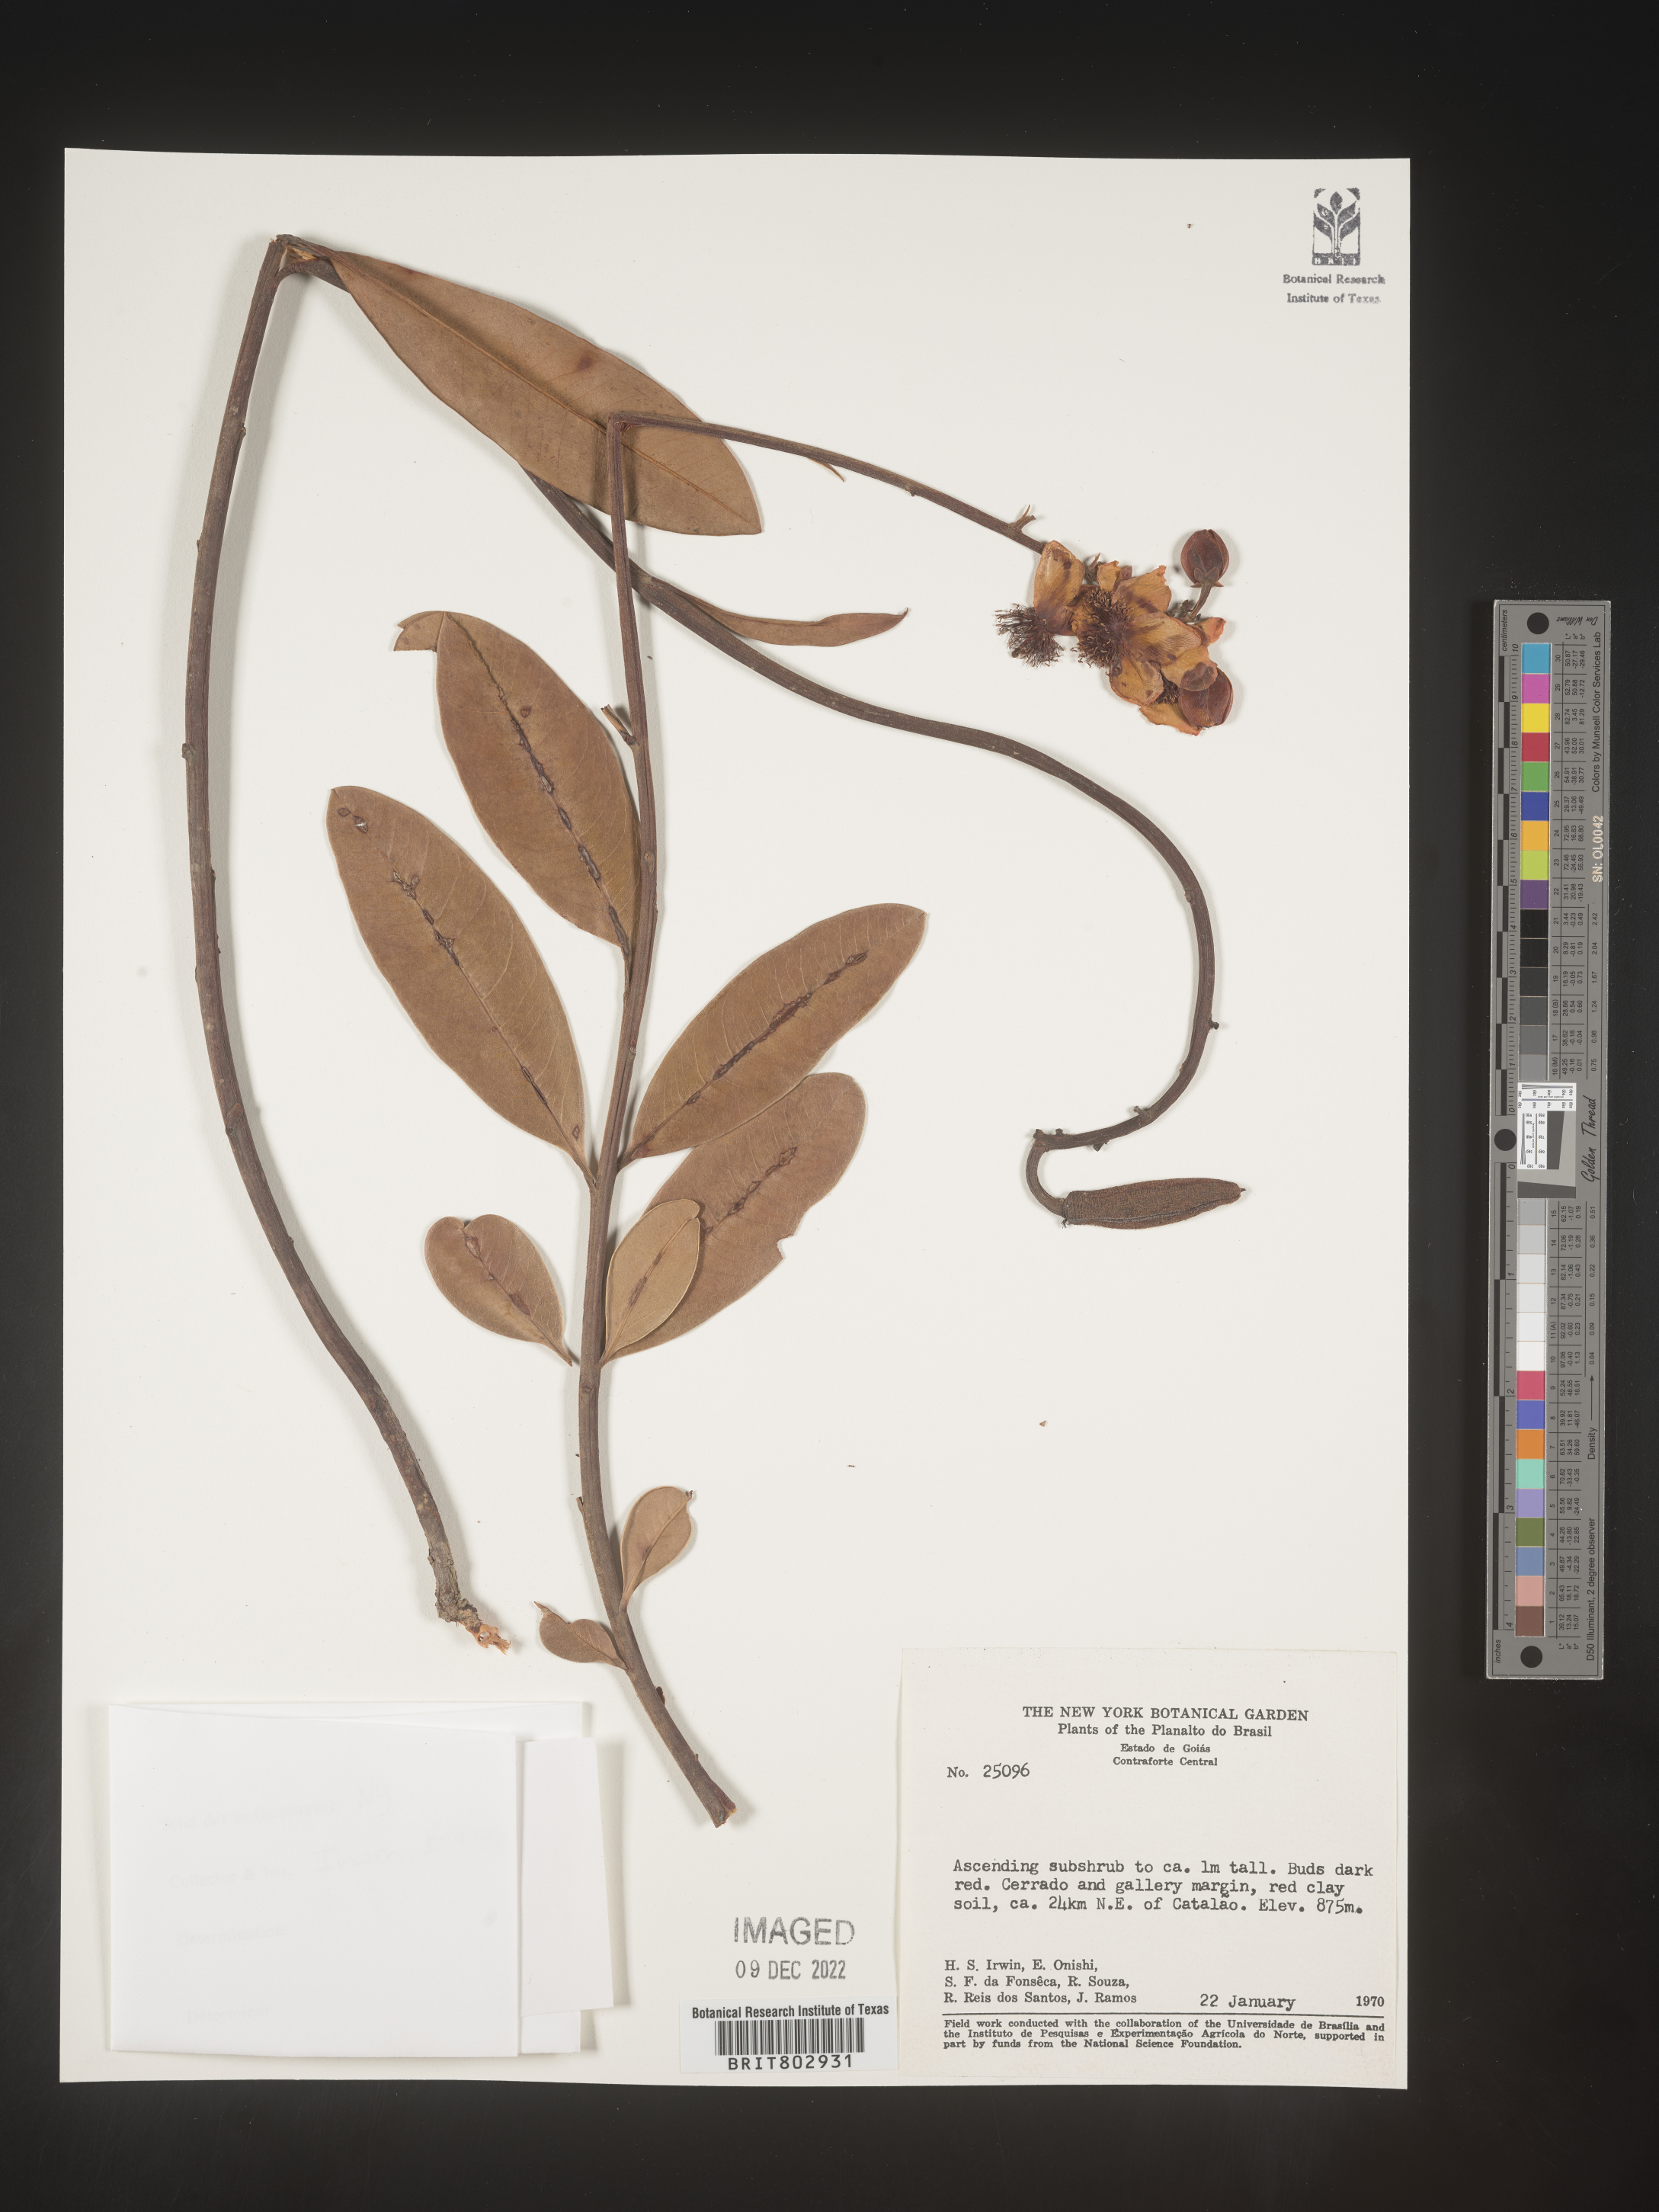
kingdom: Plantae
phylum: Tracheophyta
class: Magnoliopsida
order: Malpighiales
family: Calophyllaceae
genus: Kielmeyera
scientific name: Kielmeyera
